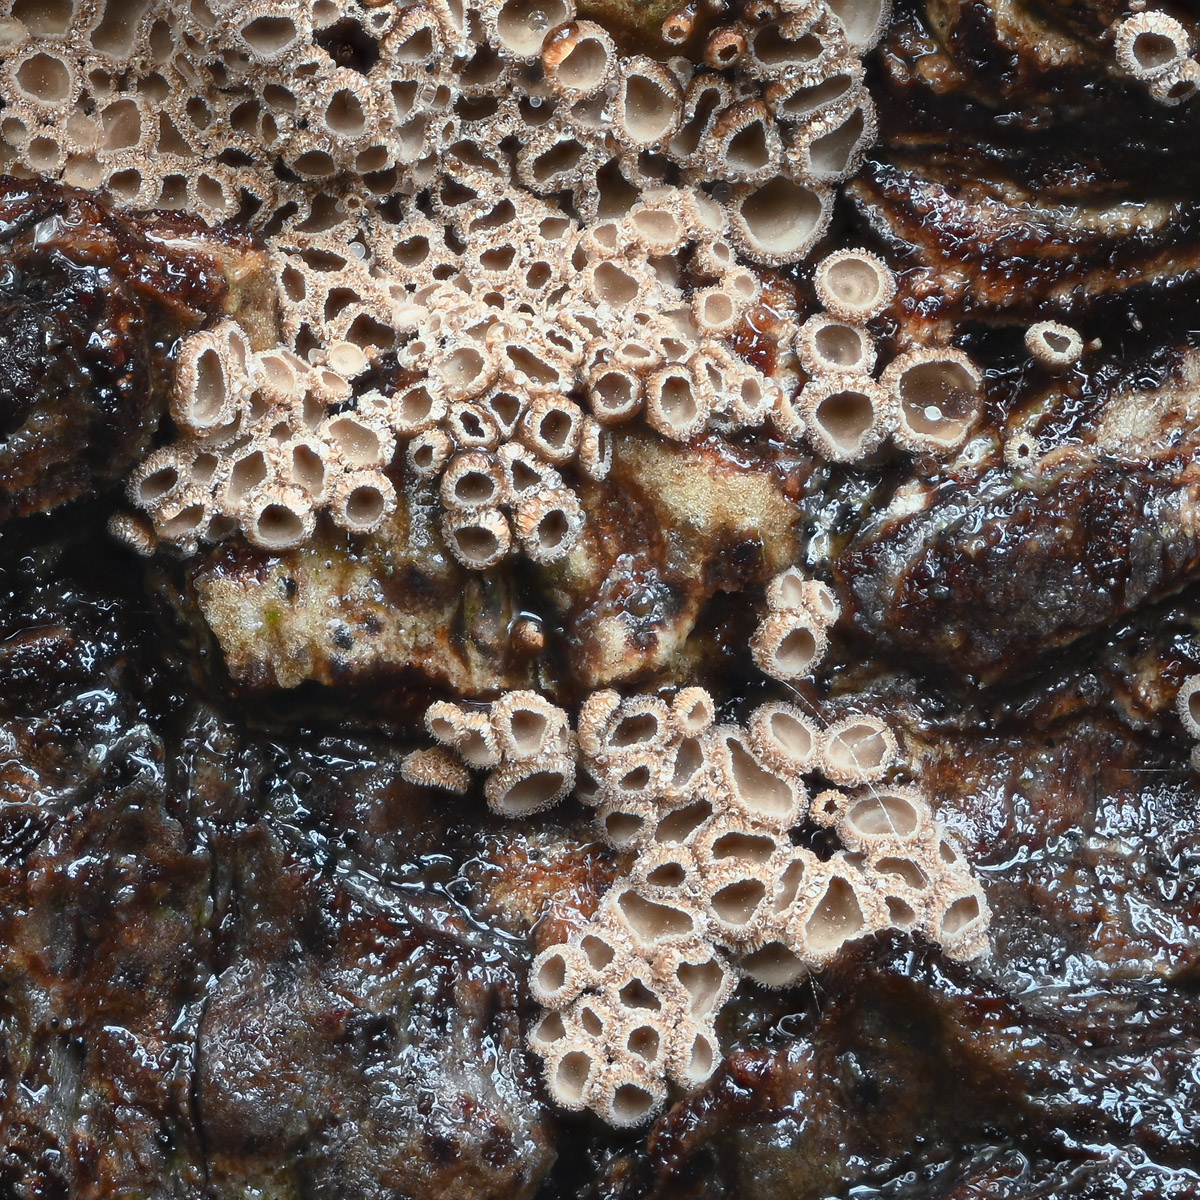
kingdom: Fungi
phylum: Basidiomycota
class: Agaricomycetes
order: Agaricales
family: Niaceae
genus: Merismodes
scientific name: Merismodes anomala
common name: almindelig læderskål
